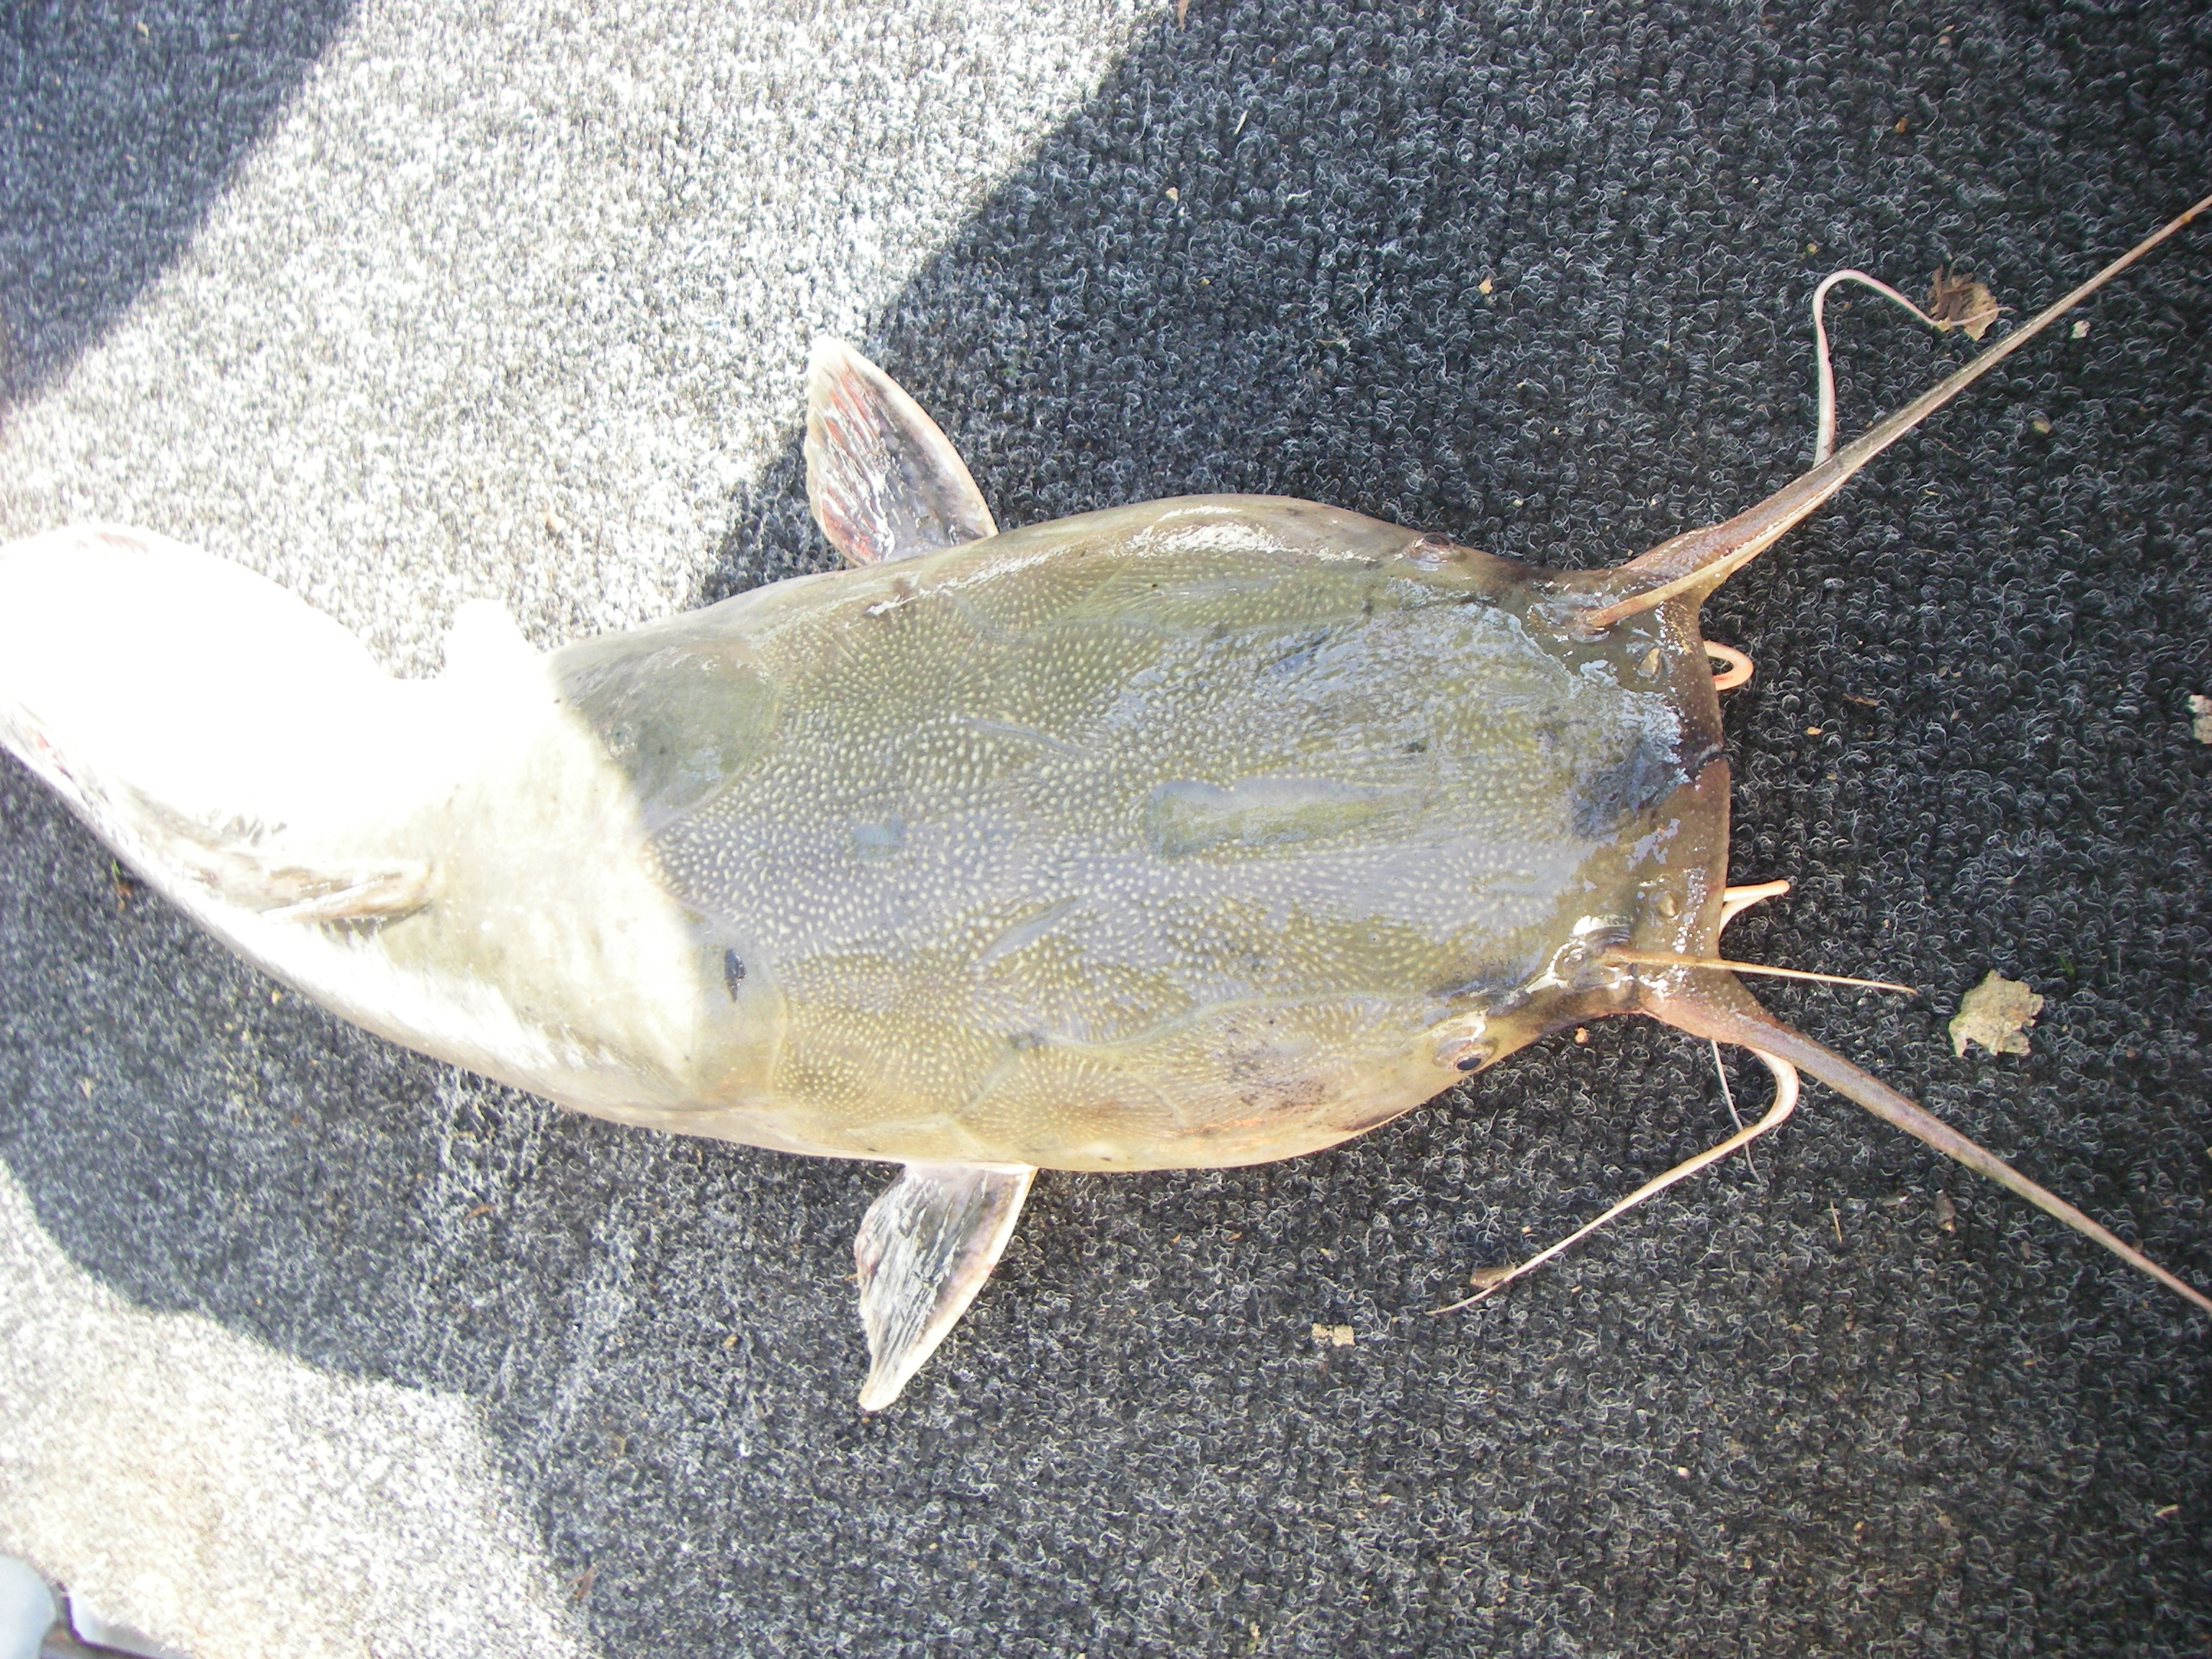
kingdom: Animalia
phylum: Chordata
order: Siluriformes
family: Clariidae
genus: Clarias
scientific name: Clarias gariepinus
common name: African catfish
